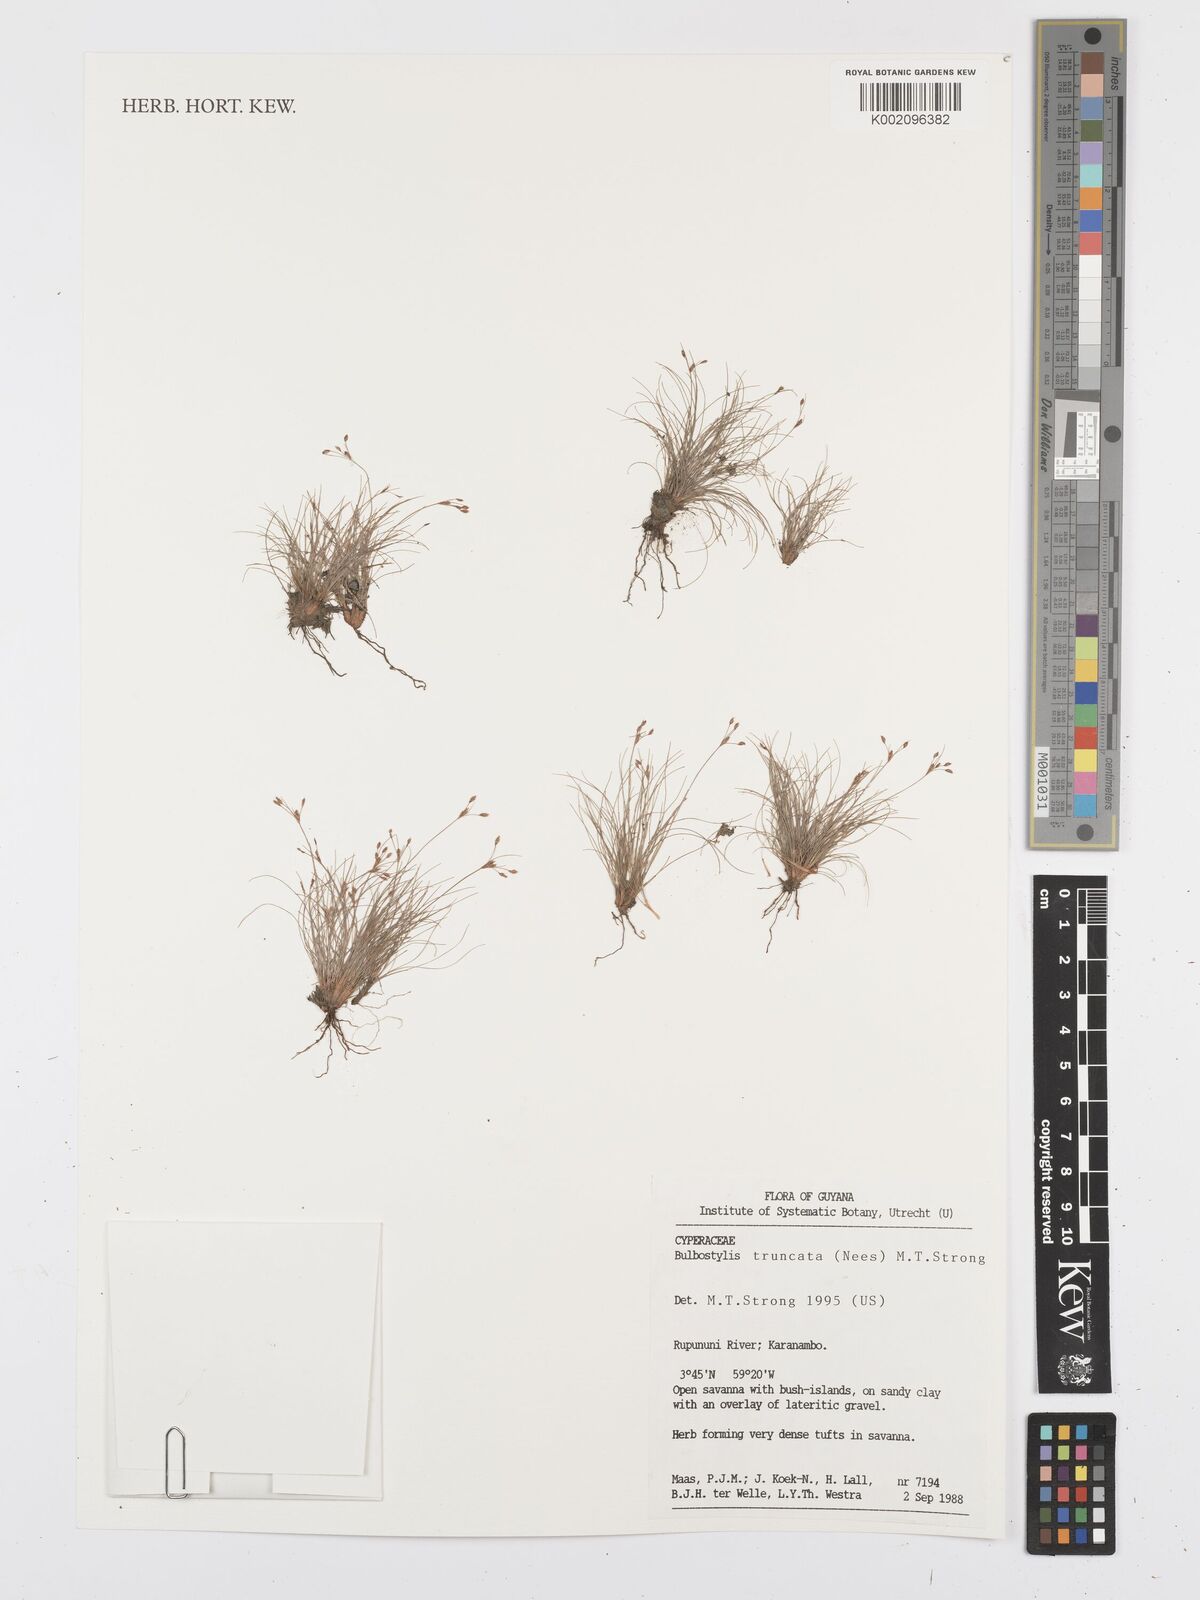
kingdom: Plantae
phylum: Tracheophyta
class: Liliopsida
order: Poales
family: Cyperaceae
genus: Bulbostylis
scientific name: Bulbostylis
